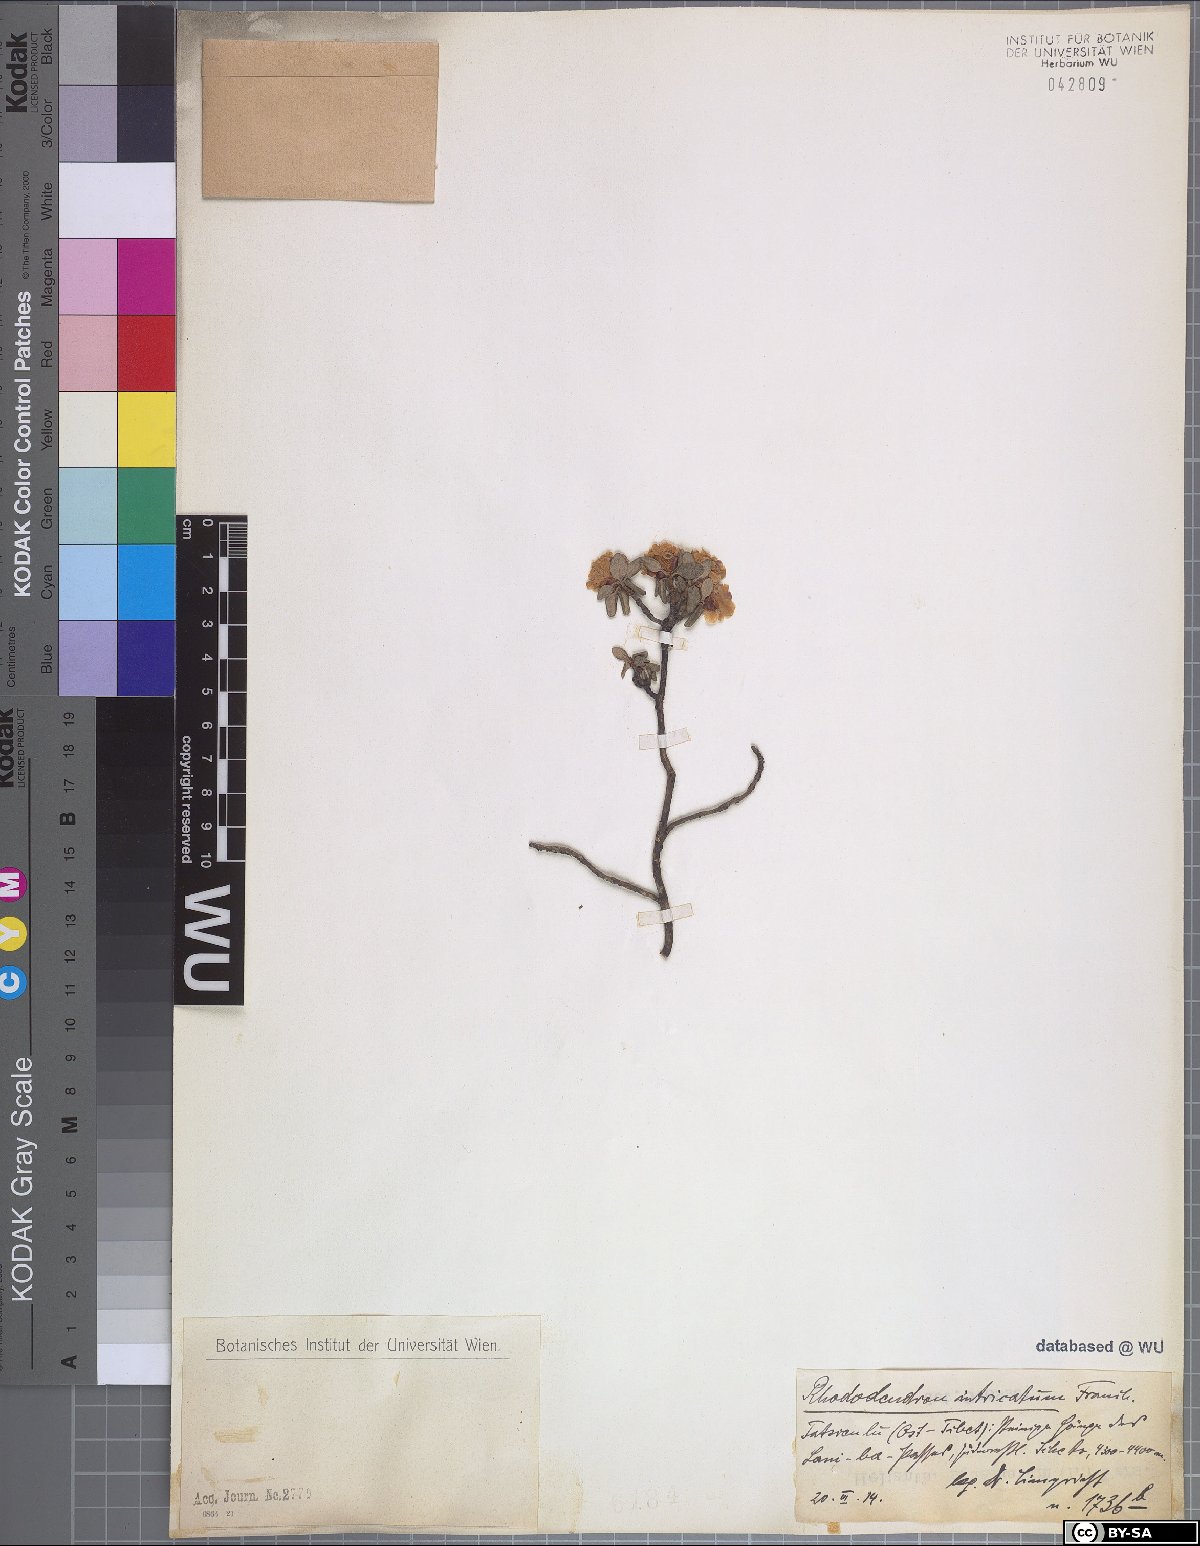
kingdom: Plantae
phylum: Tracheophyta
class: Magnoliopsida
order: Ericales
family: Ericaceae
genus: Rhododendron
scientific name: Rhododendron intricatum
